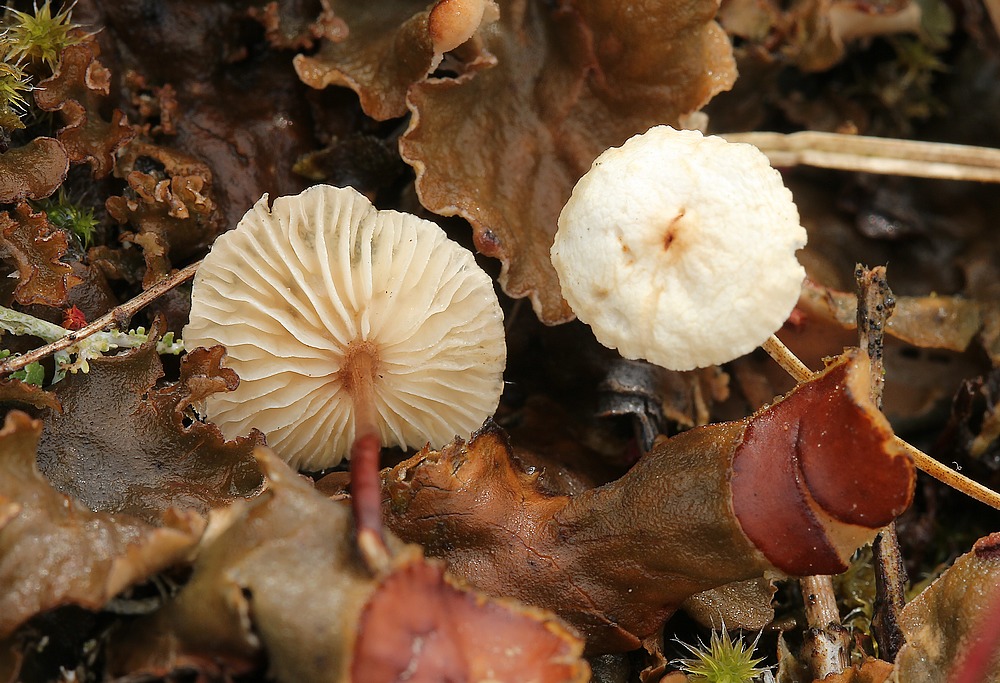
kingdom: Fungi
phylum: Basidiomycota
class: Agaricomycetes
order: Agaricales
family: Omphalotaceae
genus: Mycetinis
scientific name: Mycetinis scorodonius
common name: lille løghat
